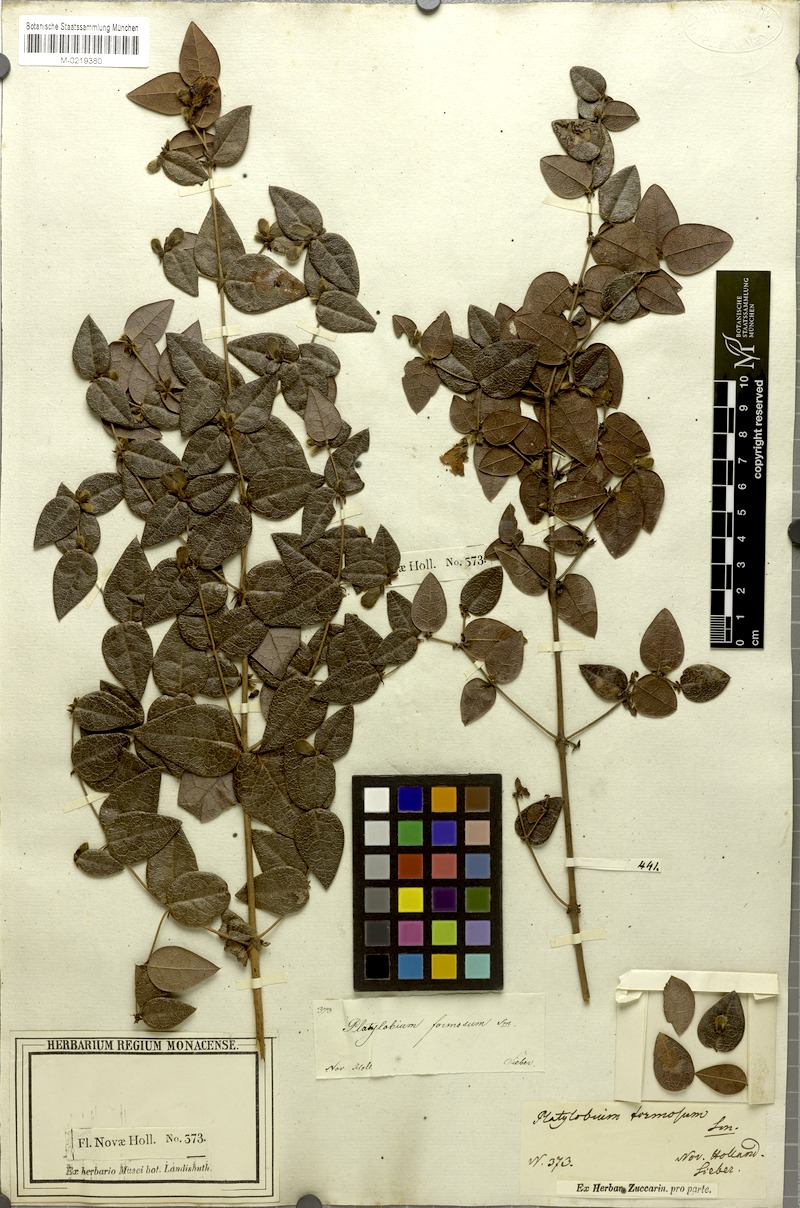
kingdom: Plantae
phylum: Tracheophyta
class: Magnoliopsida
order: Fabales
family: Fabaceae
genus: Platylobium
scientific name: Platylobium formosum
